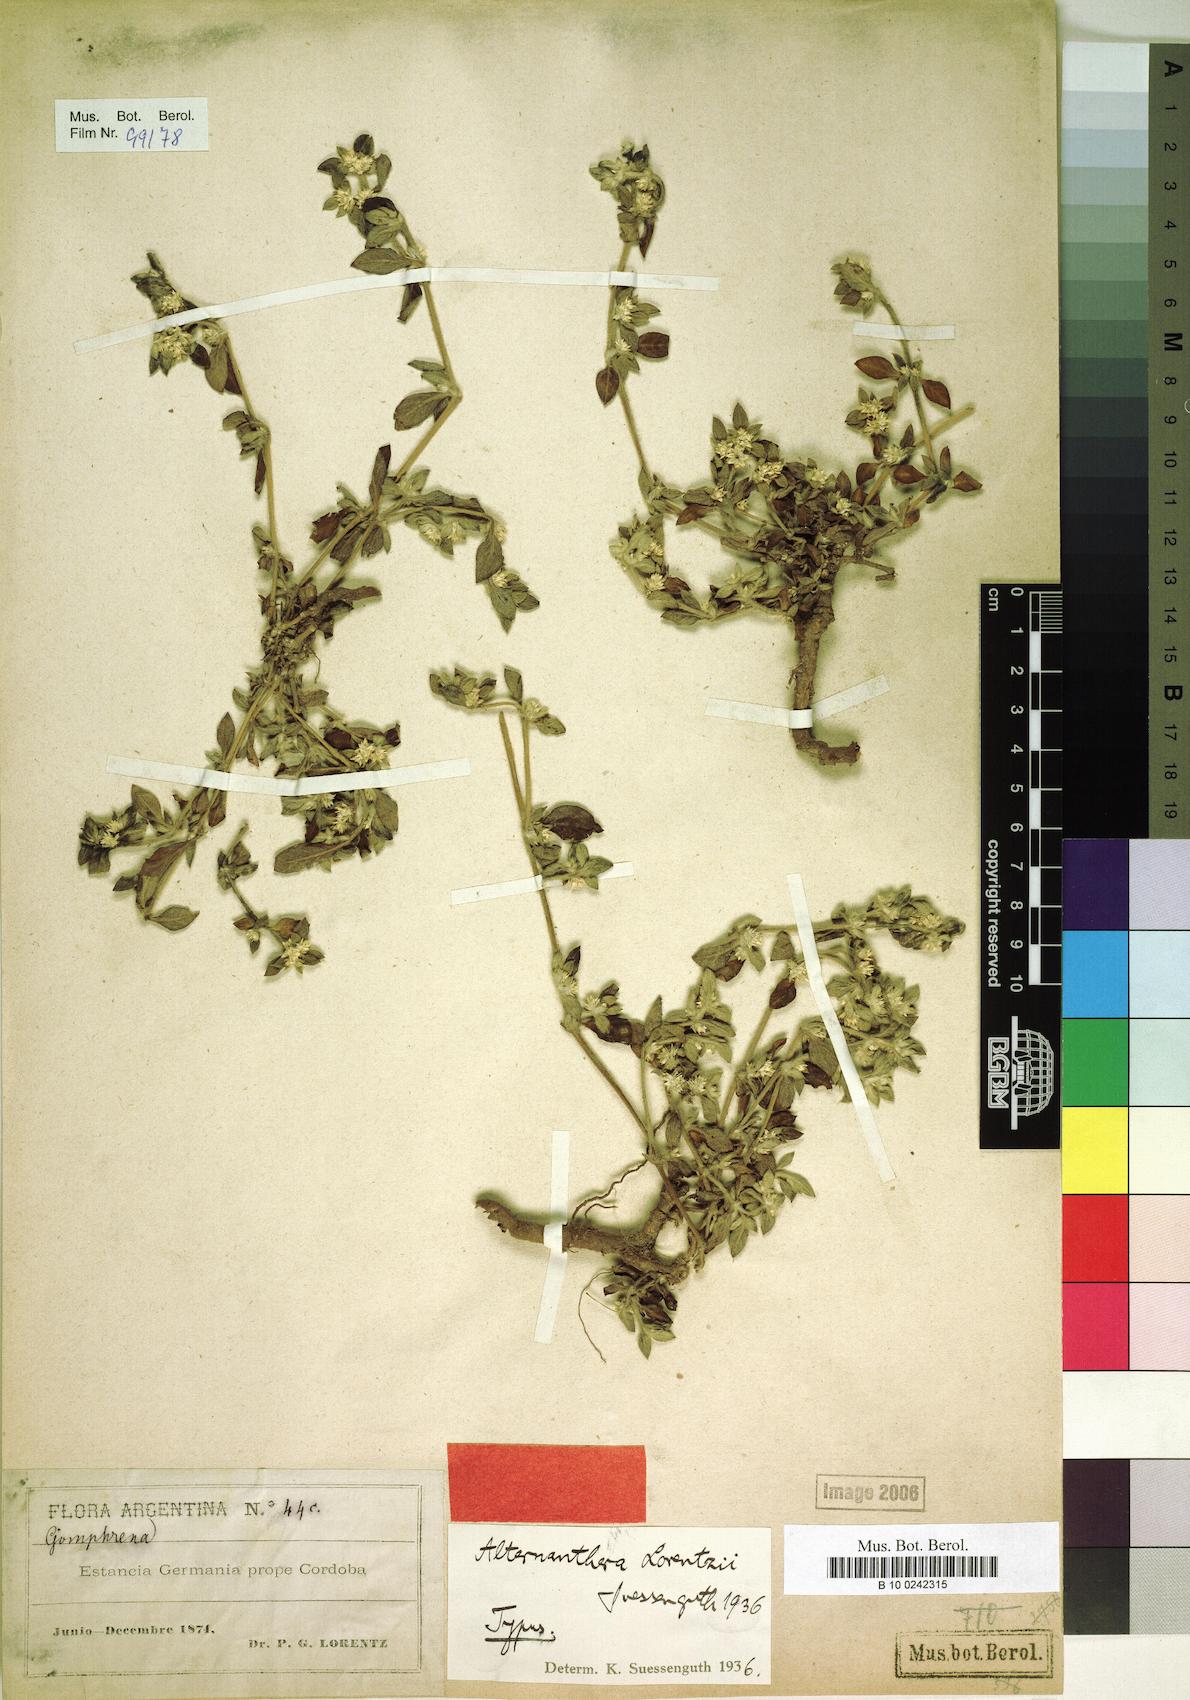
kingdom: Plantae
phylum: Tracheophyta
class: Magnoliopsida
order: Caryophyllales
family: Amaranthaceae
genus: Alternanthera
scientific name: Alternanthera suessenguthii
